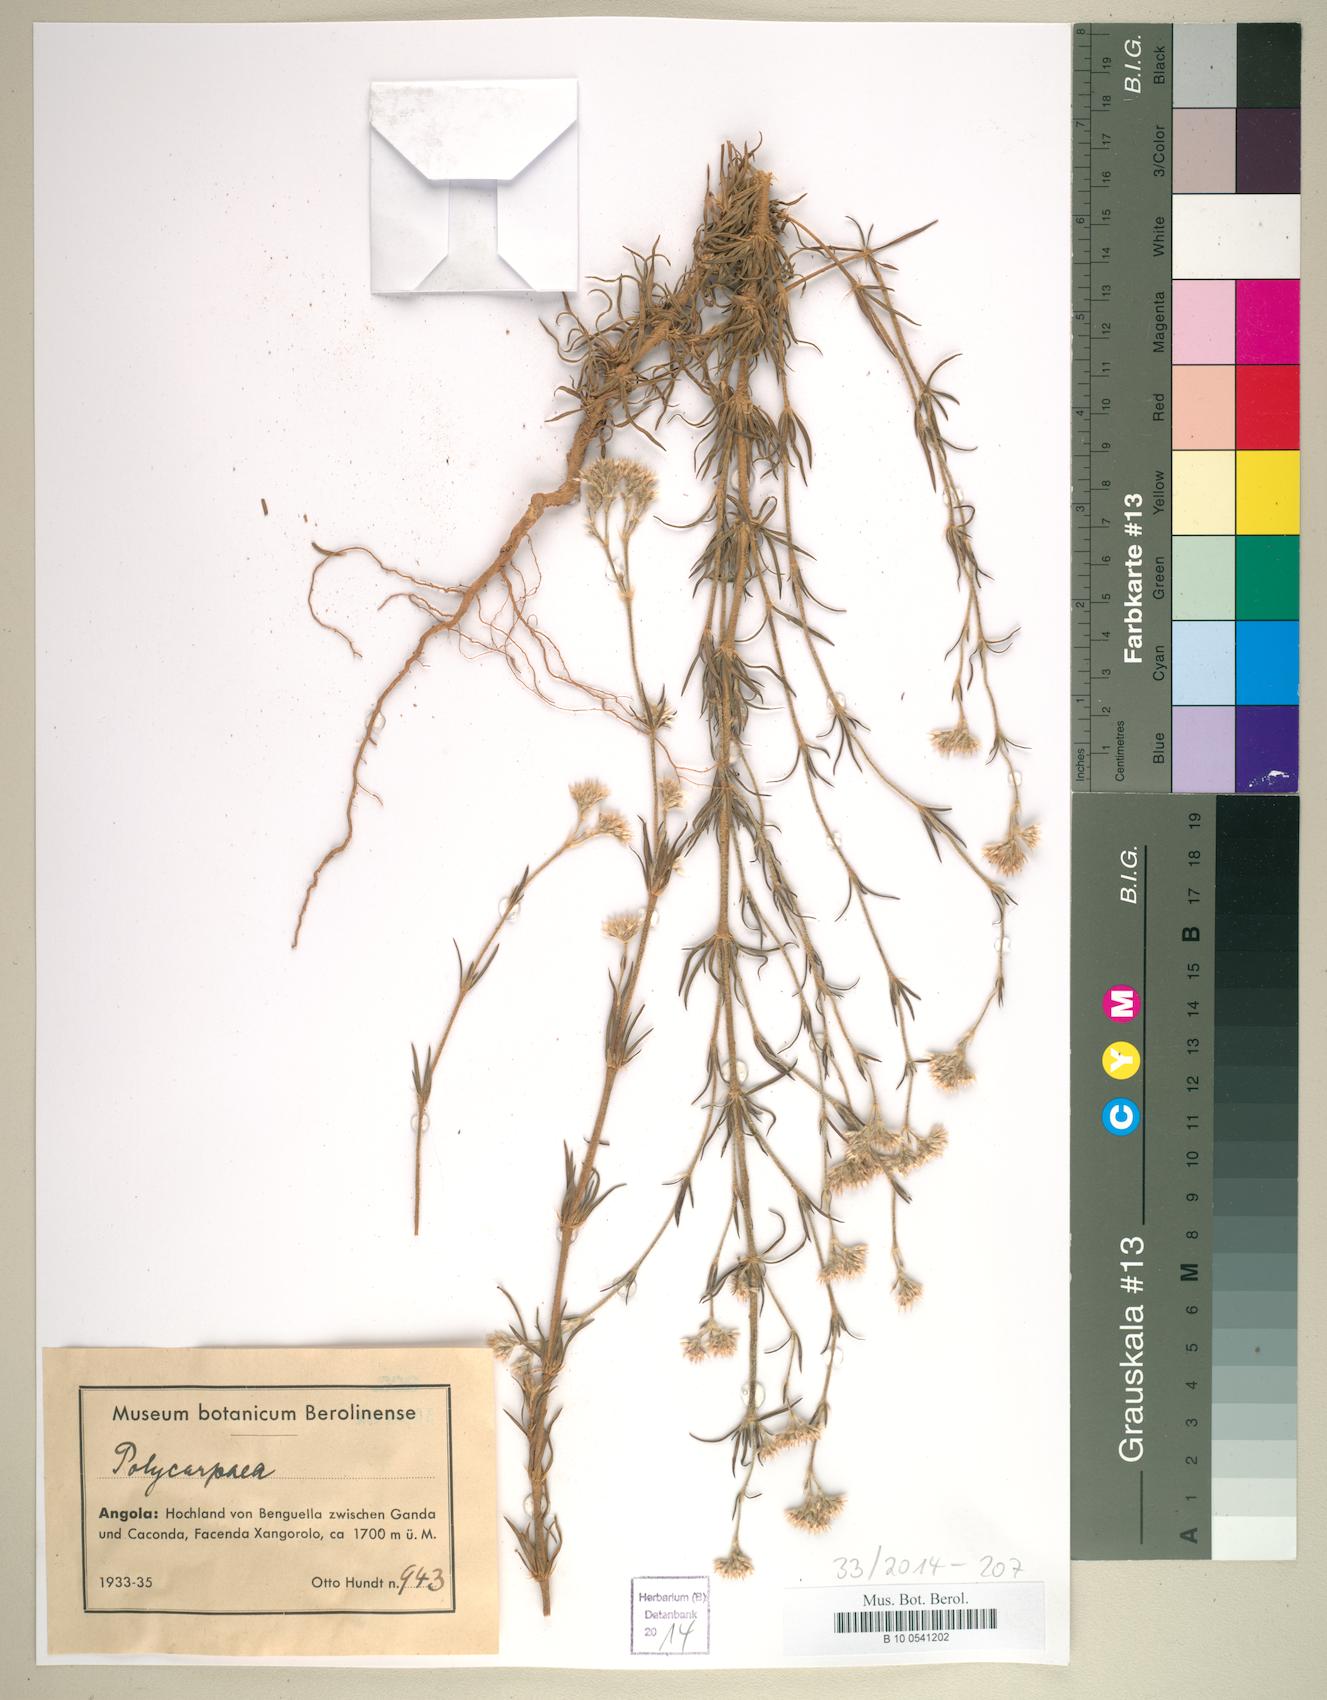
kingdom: Plantae
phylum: Tracheophyta
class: Magnoliopsida
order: Caryophyllales
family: Caryophyllaceae
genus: Polycarpaea
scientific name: Polycarpaea
